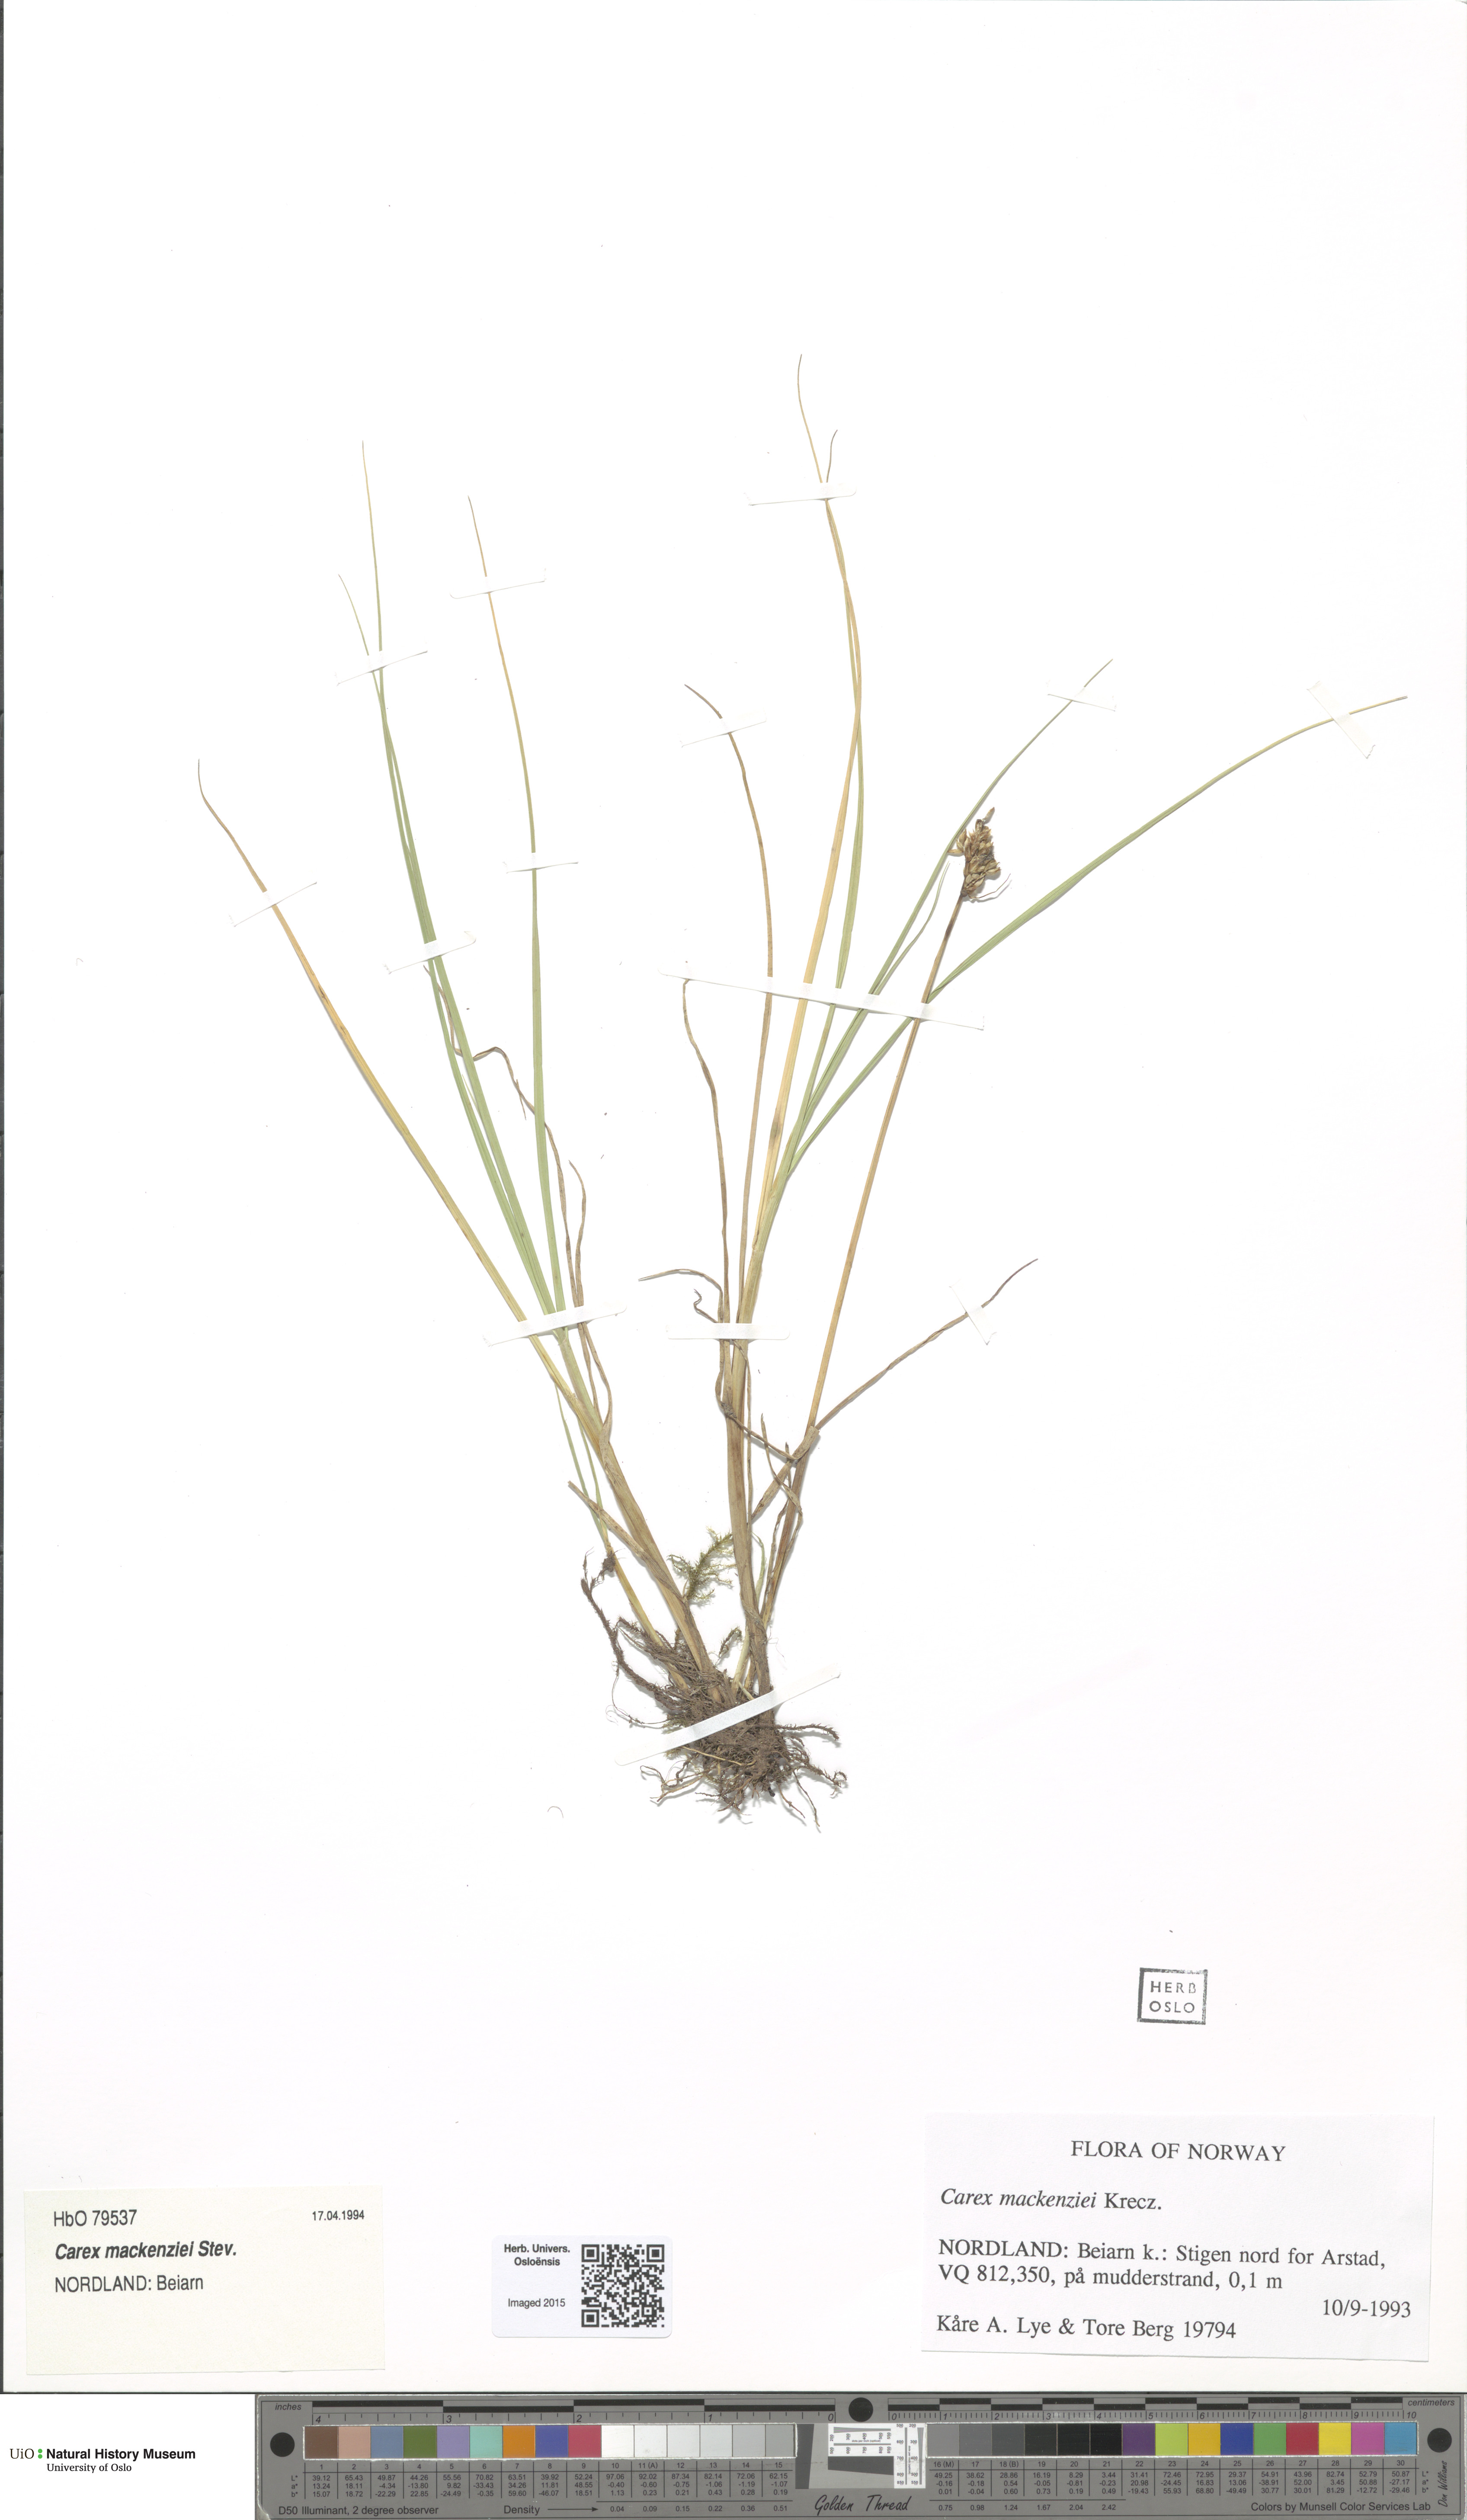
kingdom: Plantae
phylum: Tracheophyta
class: Liliopsida
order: Poales
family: Cyperaceae
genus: Carex
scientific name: Carex mackenziei
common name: Mackenzie's sedge
